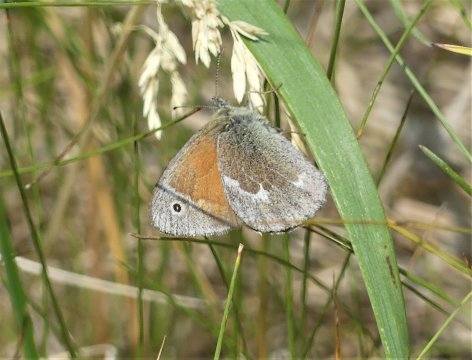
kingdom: Animalia
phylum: Arthropoda
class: Insecta
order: Lepidoptera
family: Nymphalidae
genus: Coenonympha
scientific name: Coenonympha tullia
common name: Large Heath
